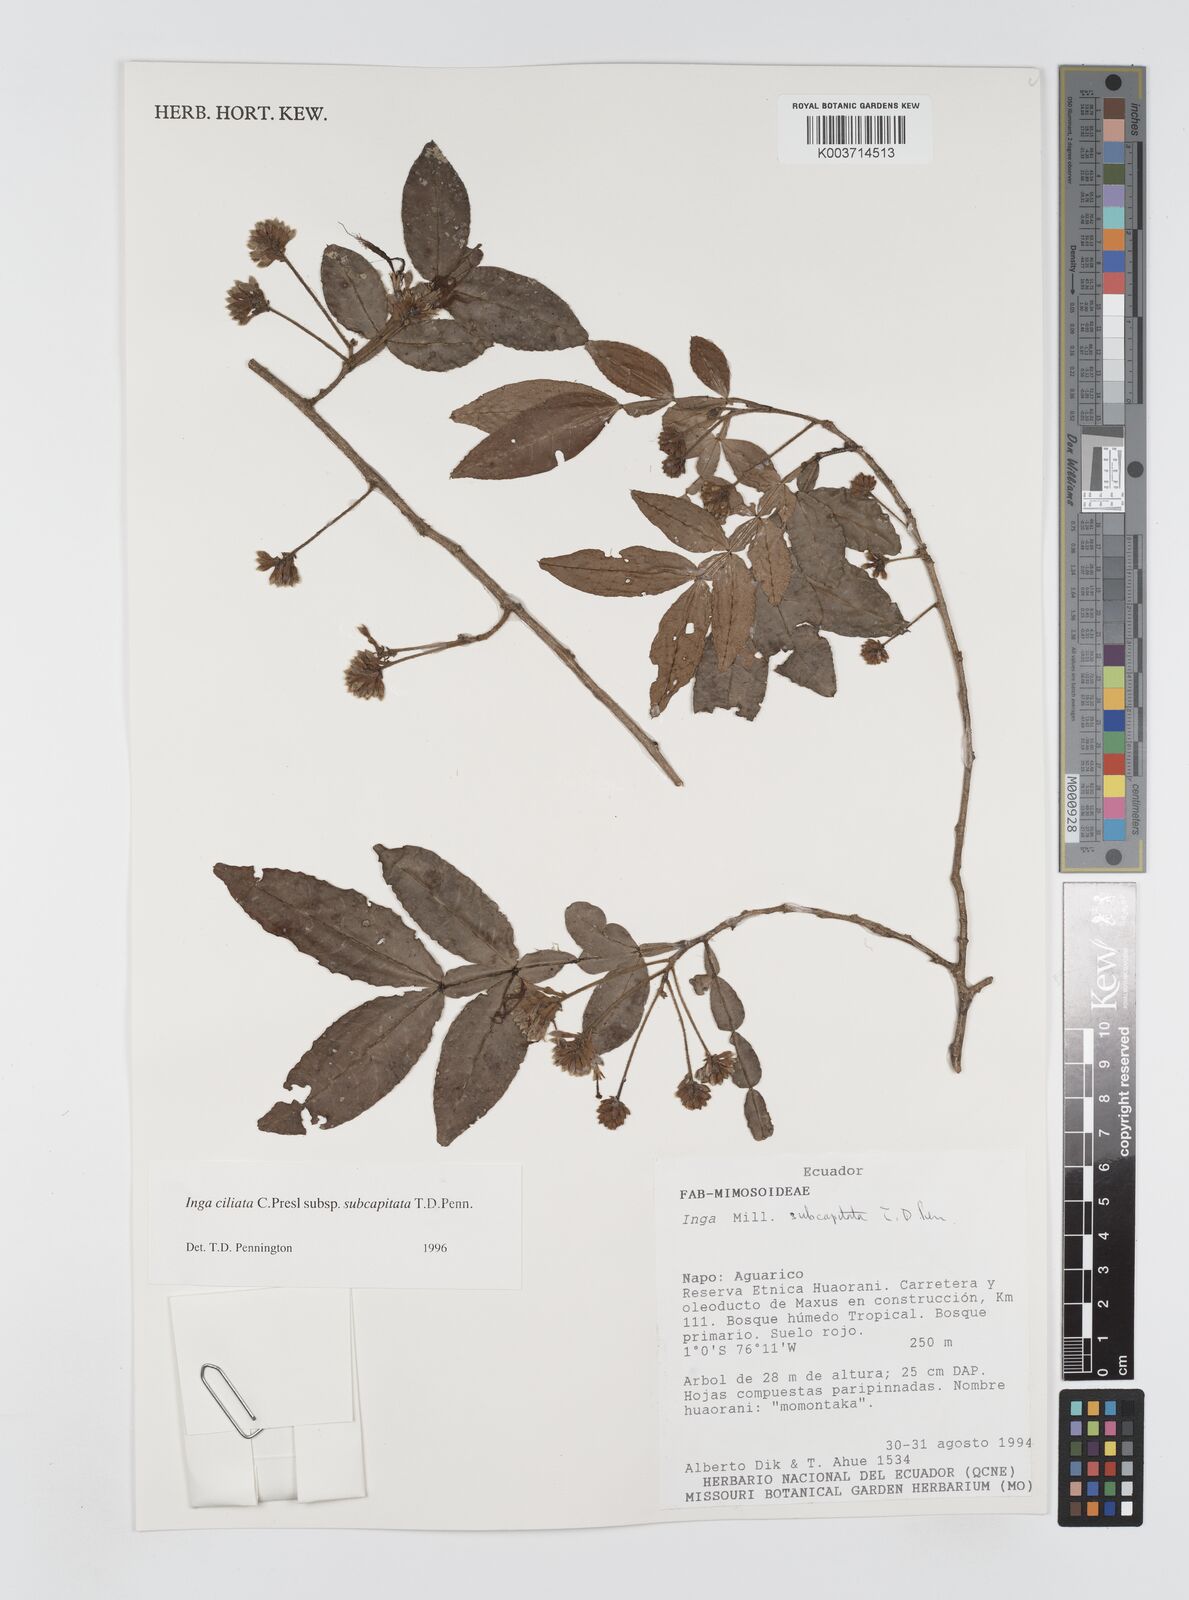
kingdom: Plantae
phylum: Tracheophyta
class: Magnoliopsida
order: Fabales
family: Fabaceae
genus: Inga
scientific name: Inga ciliata
